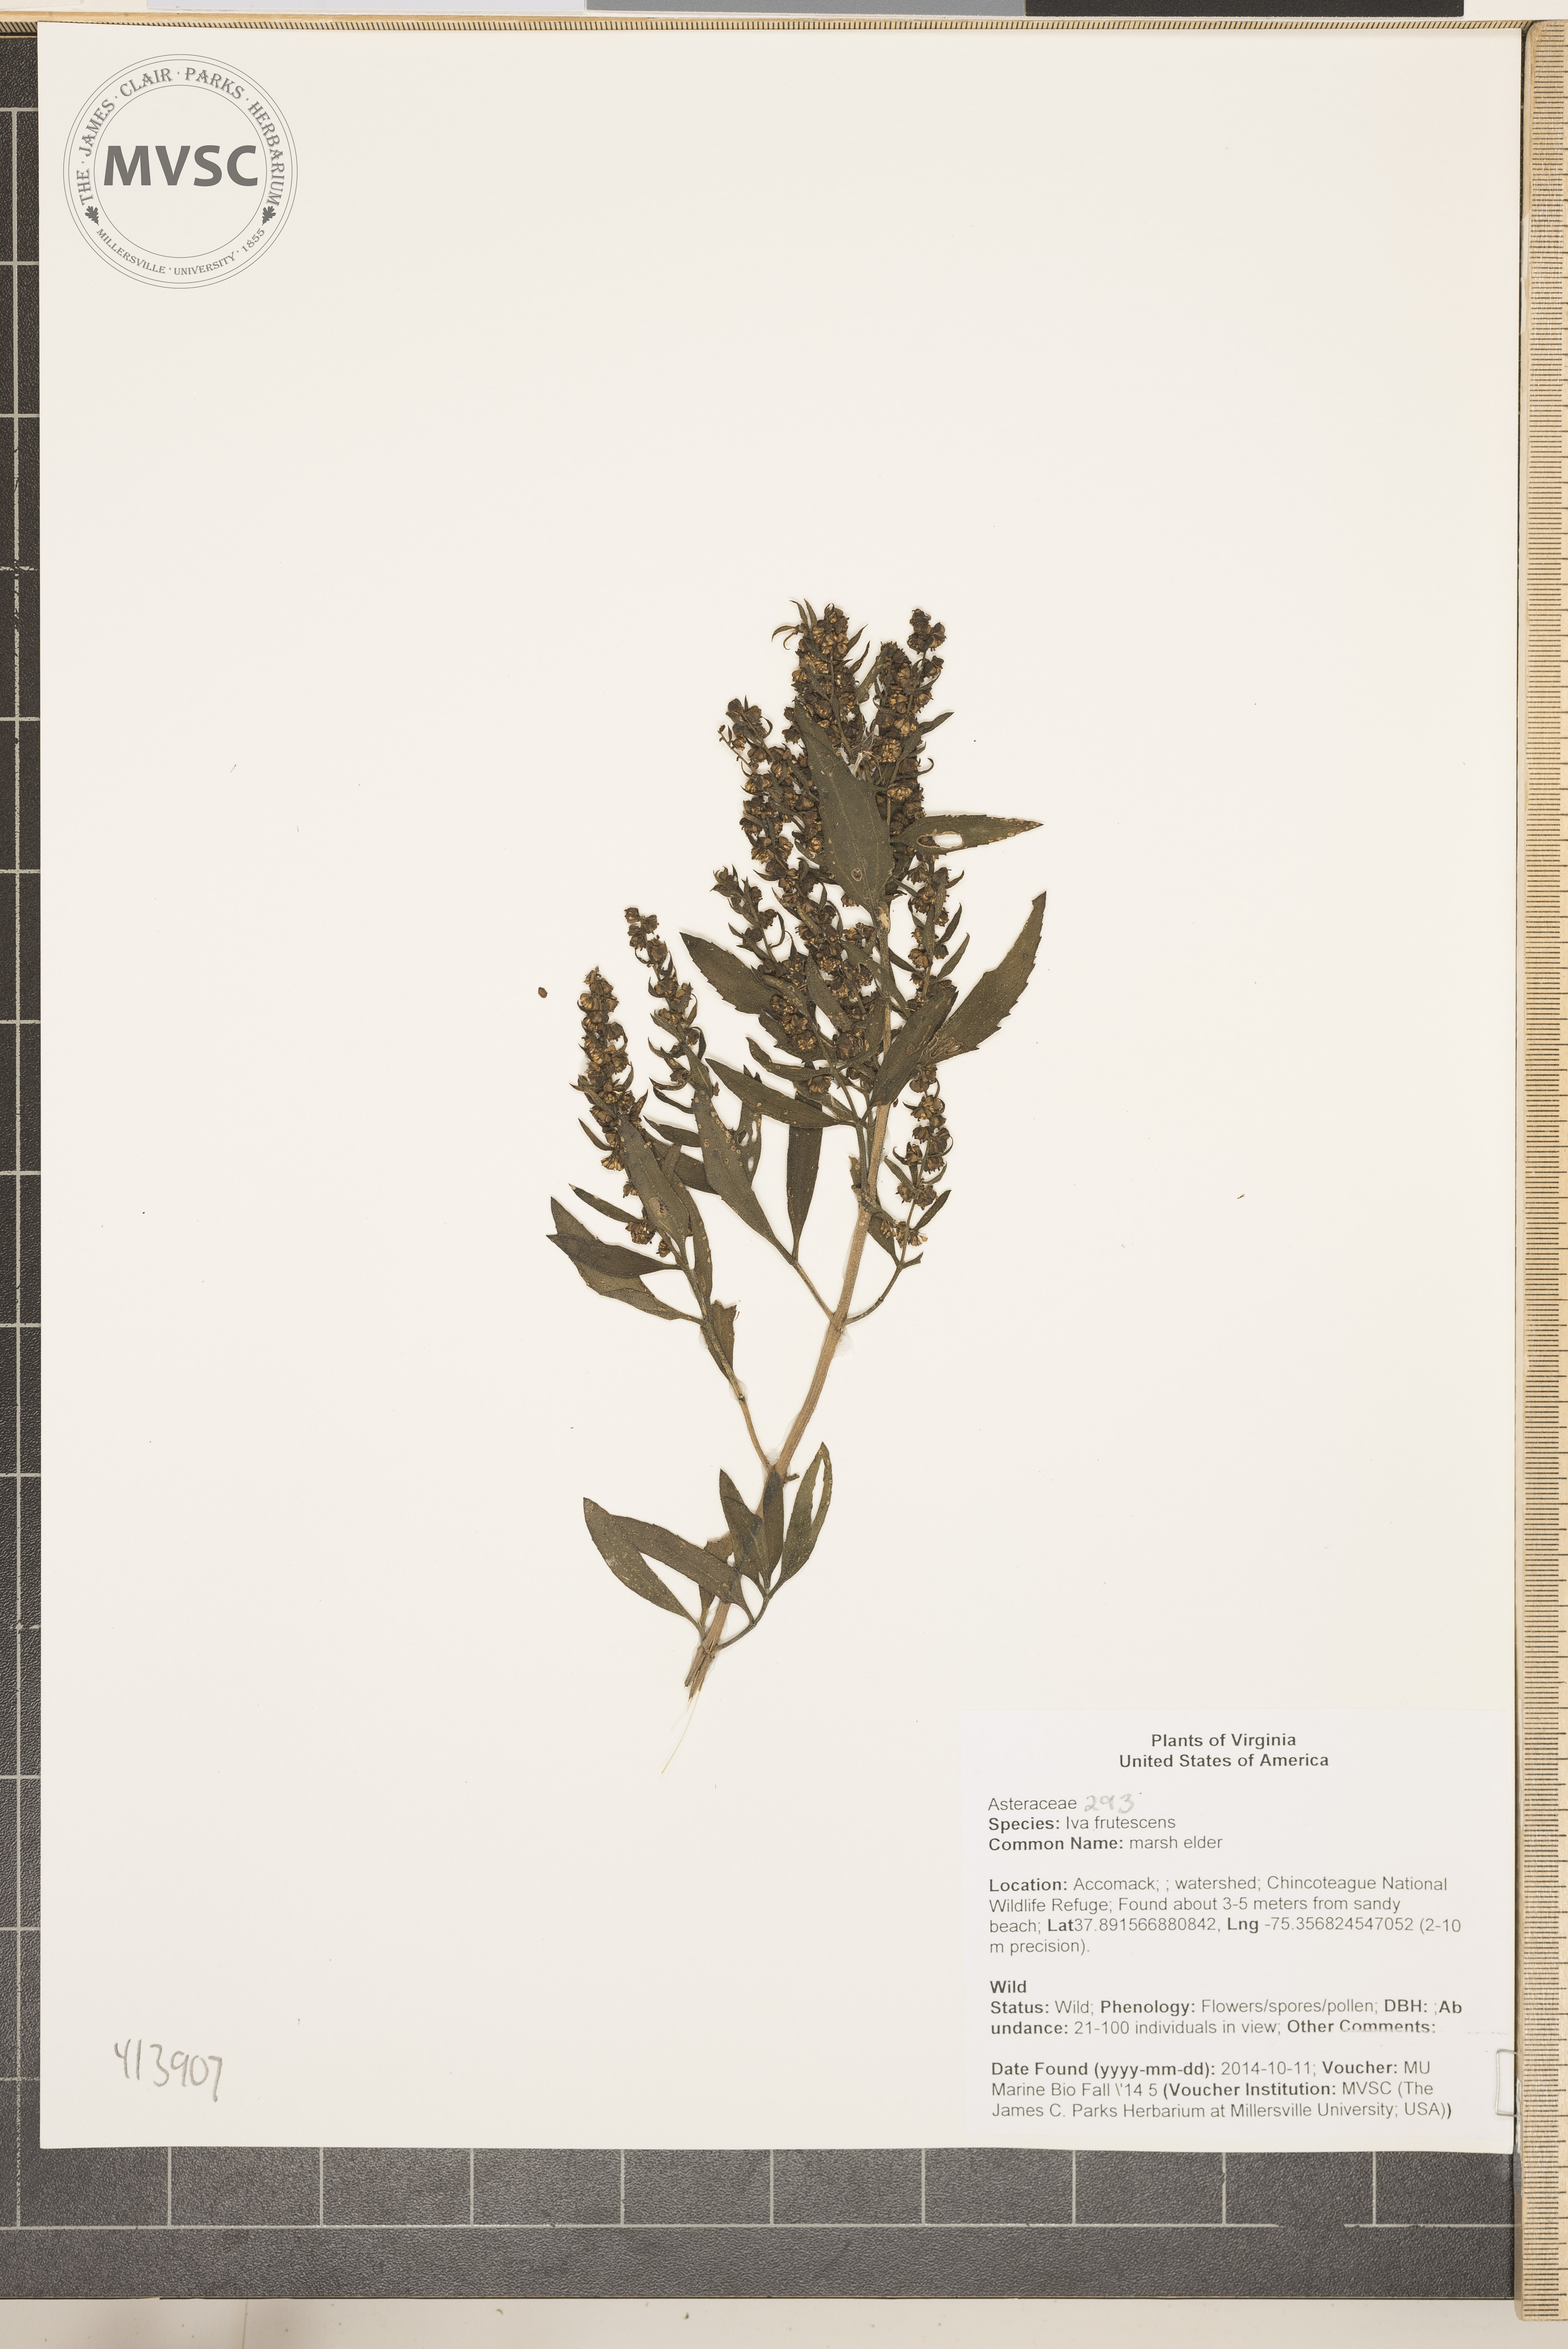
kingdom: Plantae
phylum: Tracheophyta
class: Magnoliopsida
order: Asterales
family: Asteraceae
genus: Iva
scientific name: Iva frutescens
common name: marsh elder
